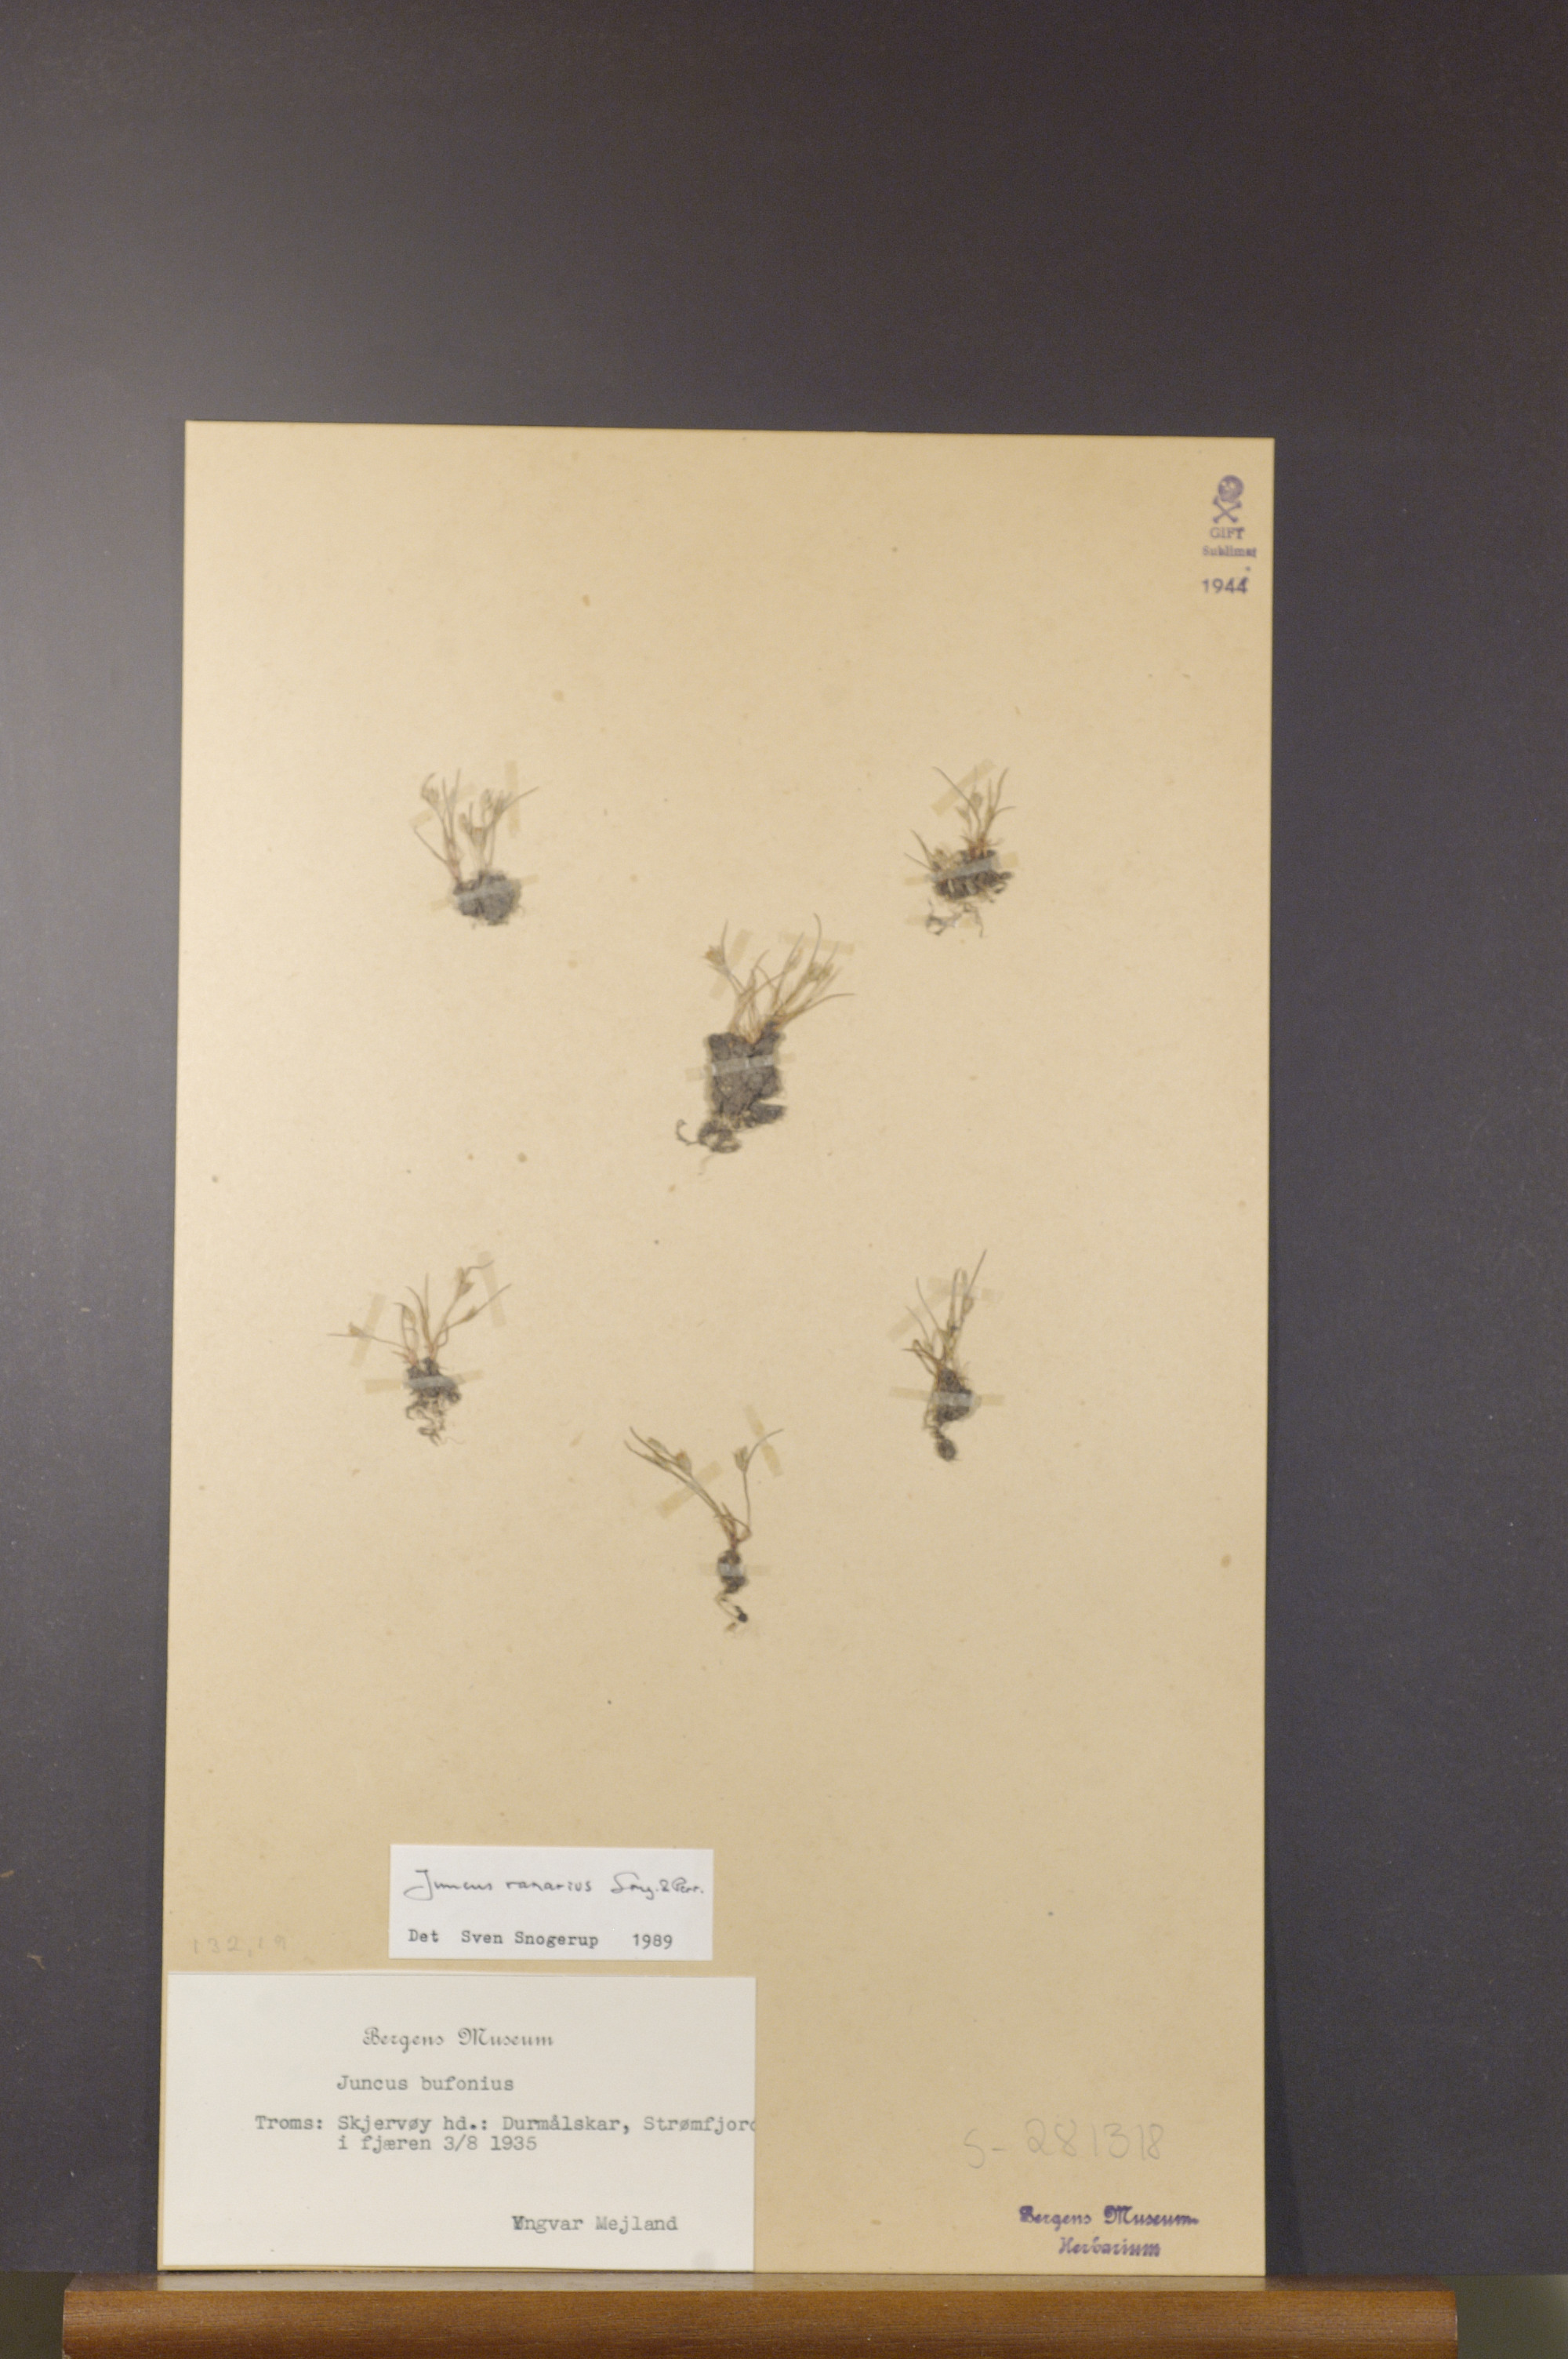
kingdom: Plantae
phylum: Tracheophyta
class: Liliopsida
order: Poales
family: Juncaceae
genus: Juncus
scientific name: Juncus ranarius
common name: Frog rush
